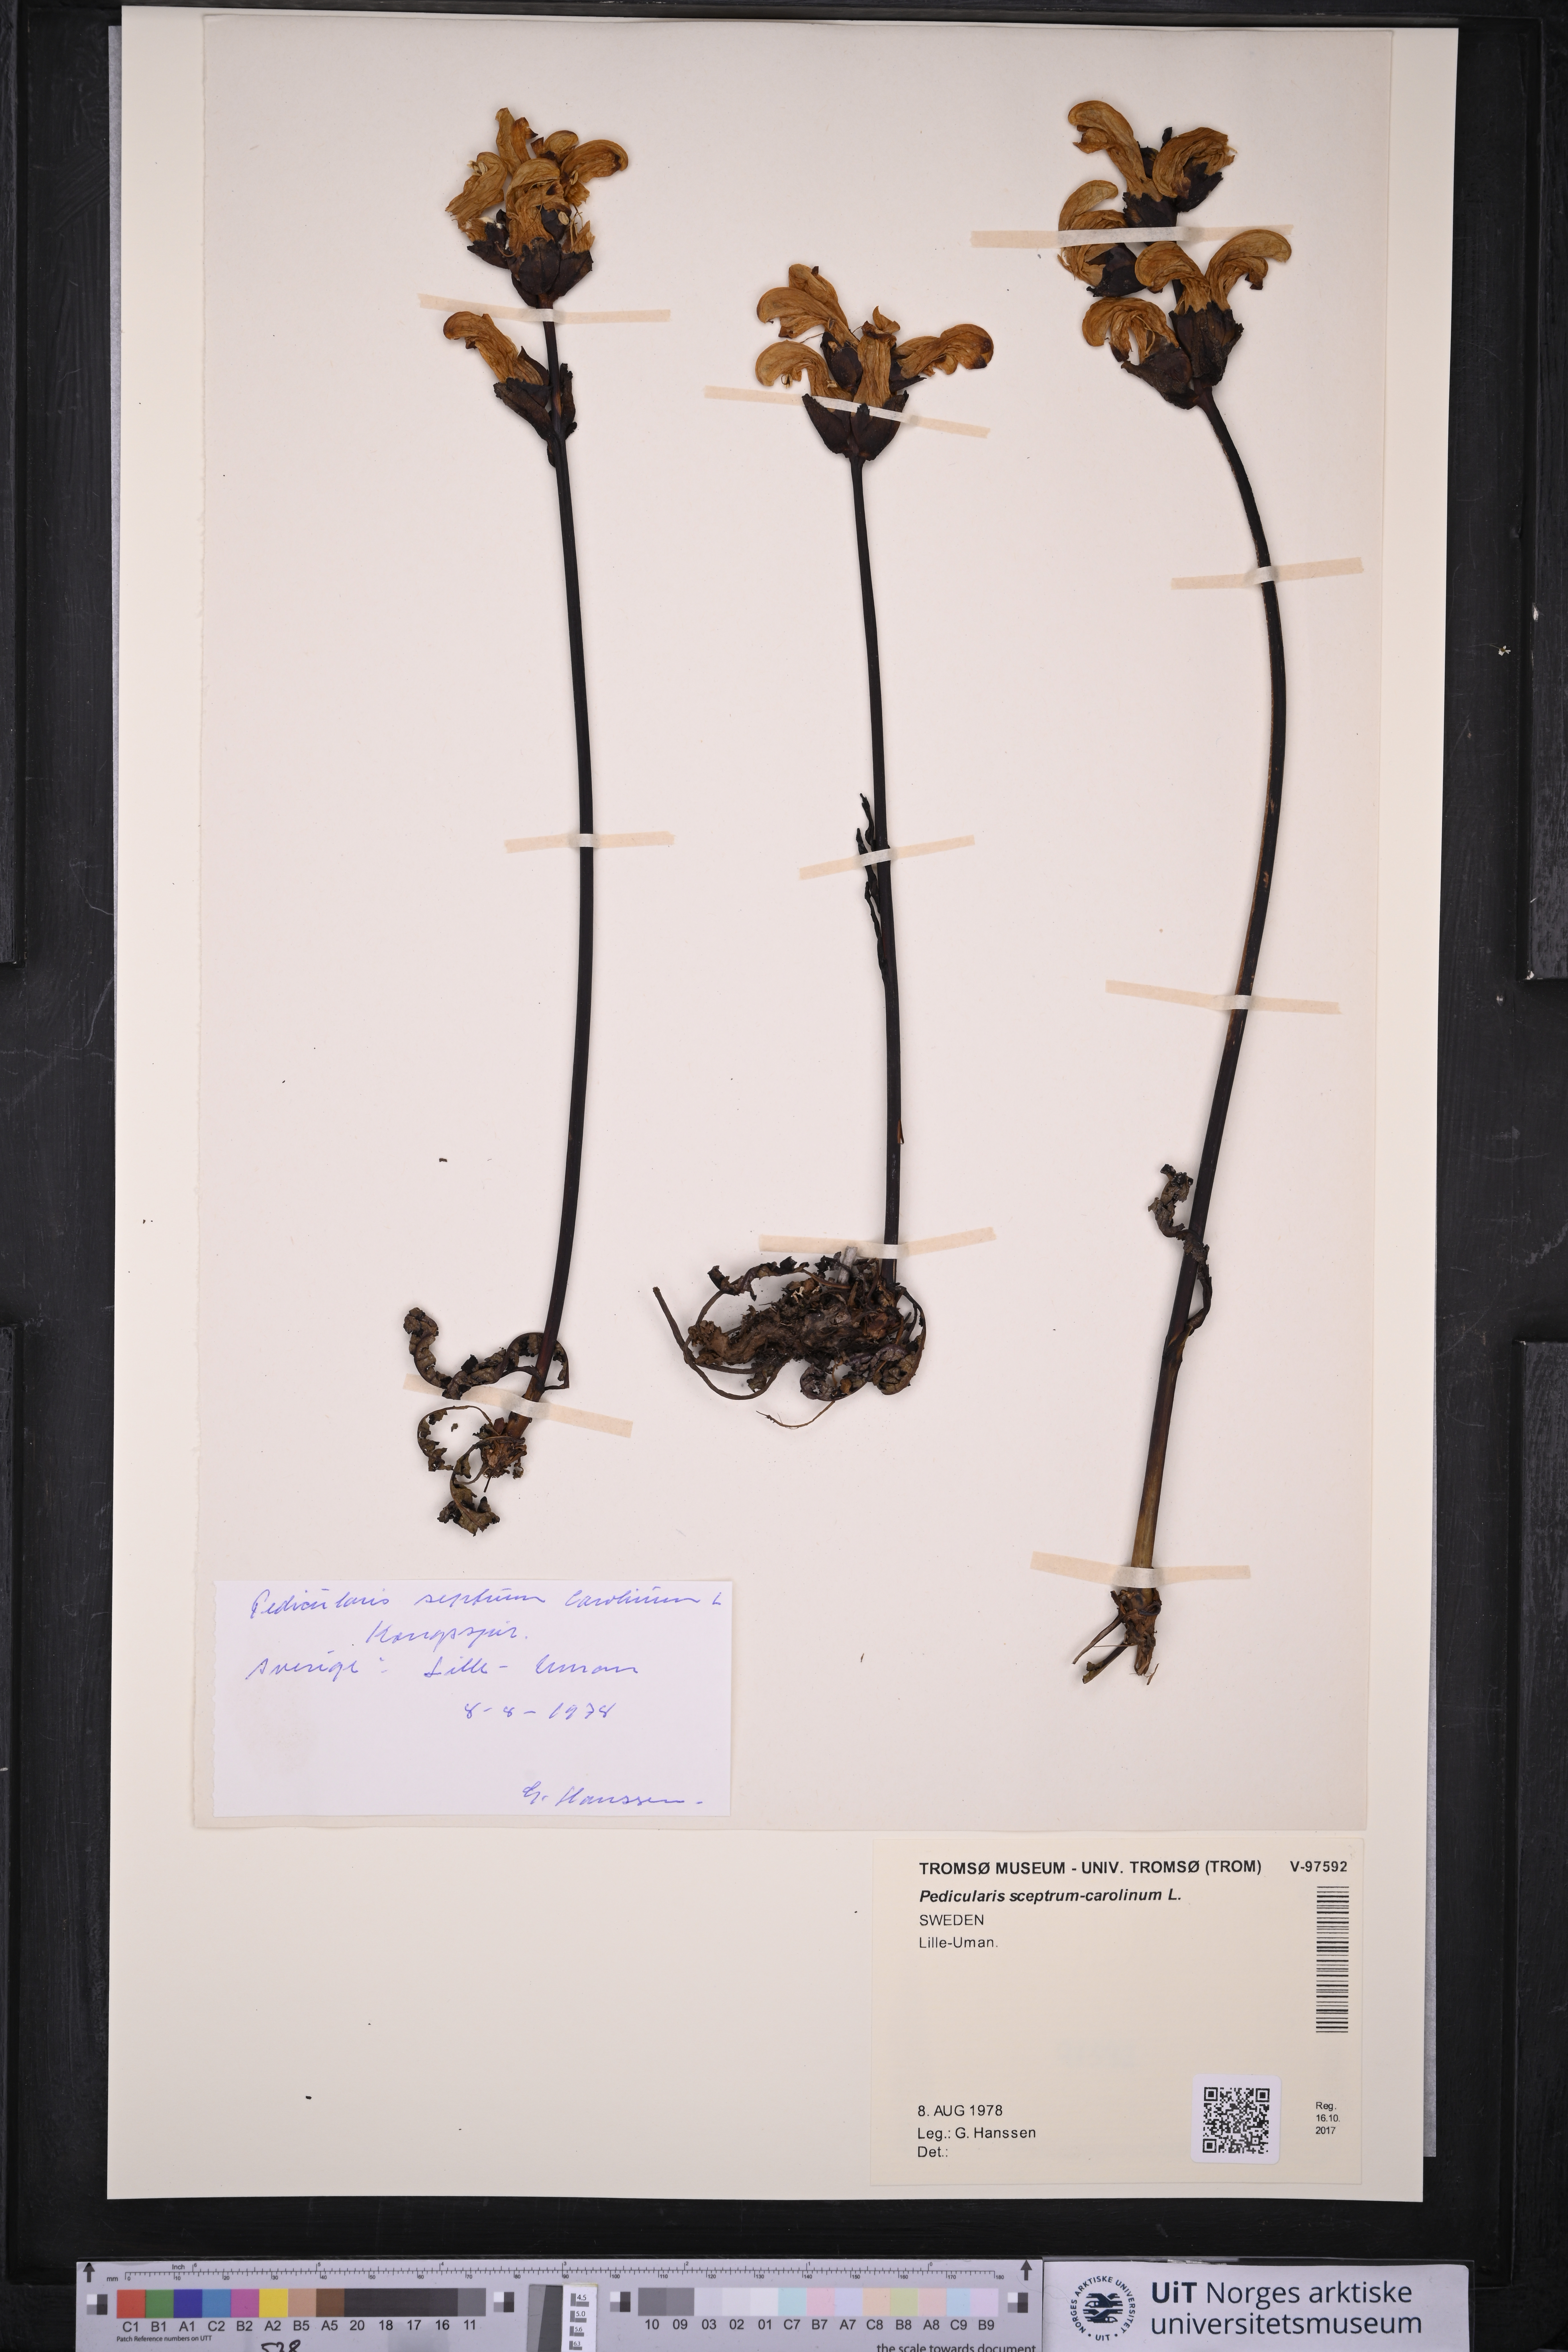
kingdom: Plantae
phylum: Tracheophyta
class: Magnoliopsida
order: Lamiales
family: Orobanchaceae
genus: Pedicularis
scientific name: Pedicularis sceptrum-carolinum
